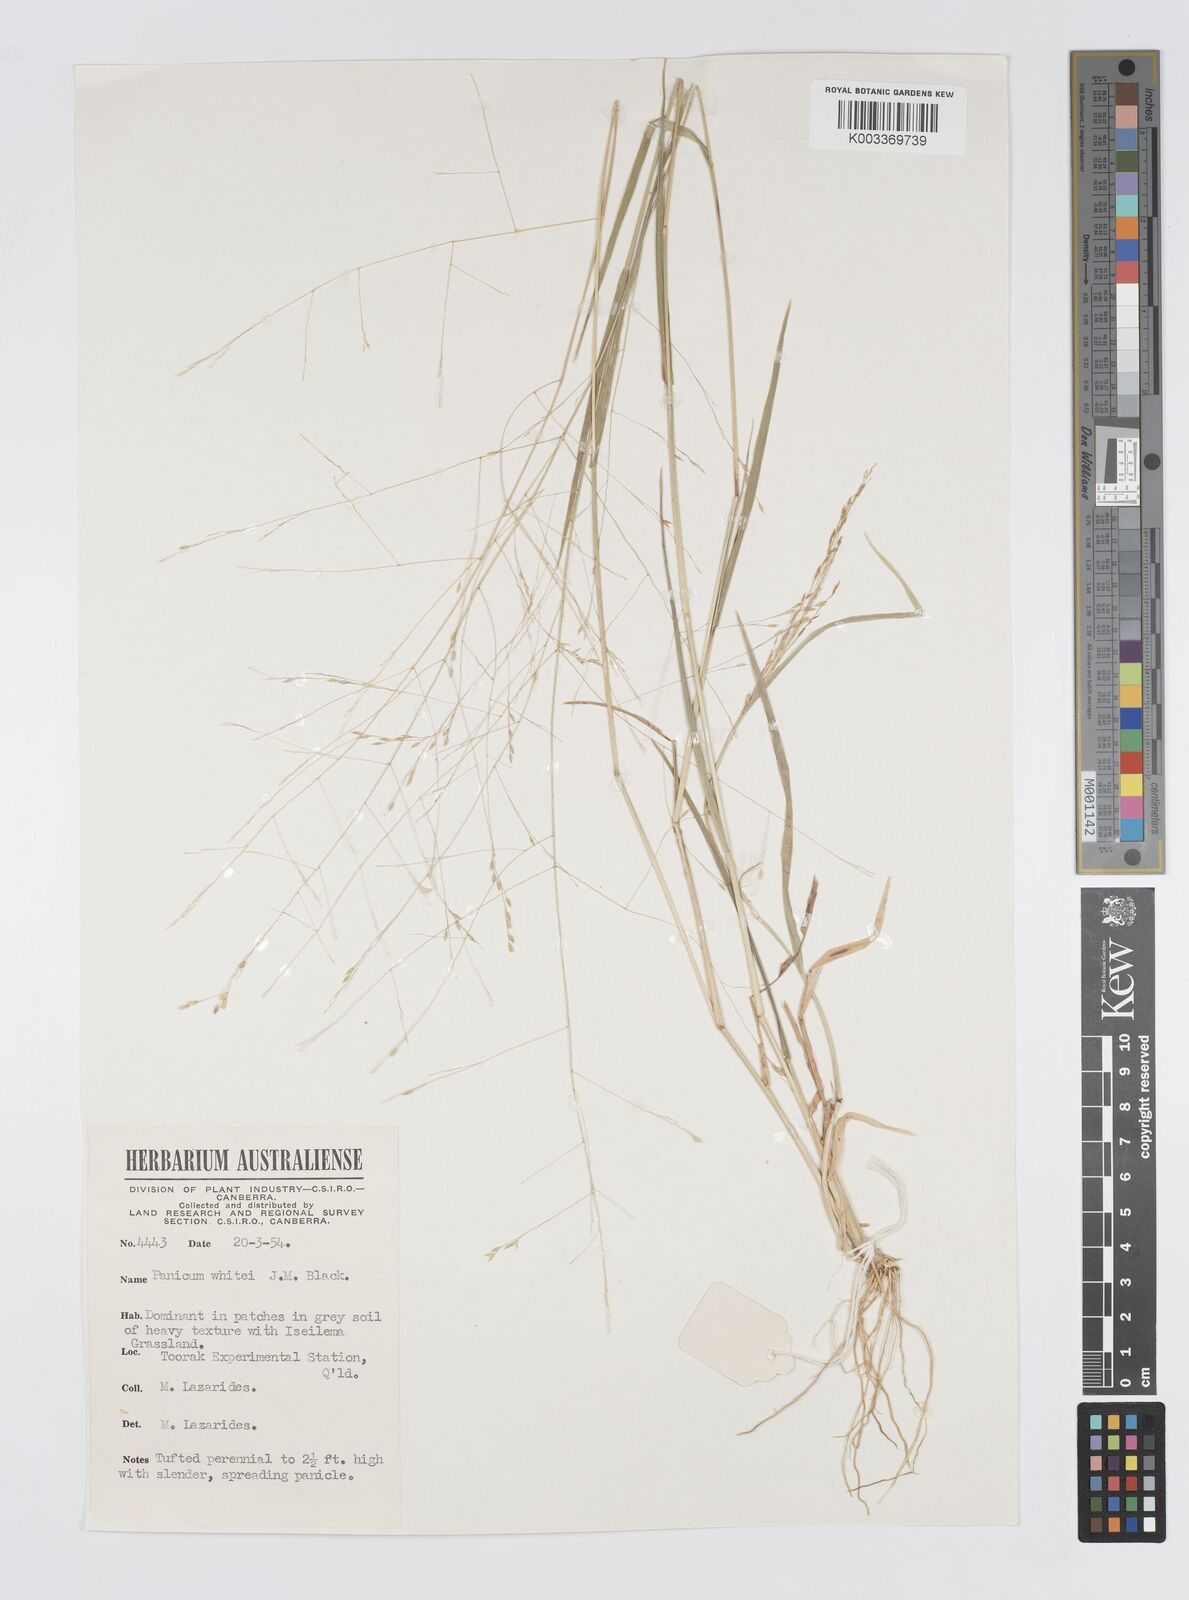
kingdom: Plantae
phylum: Tracheophyta
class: Liliopsida
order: Poales
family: Poaceae
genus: Panicum
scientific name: Panicum laevinode
